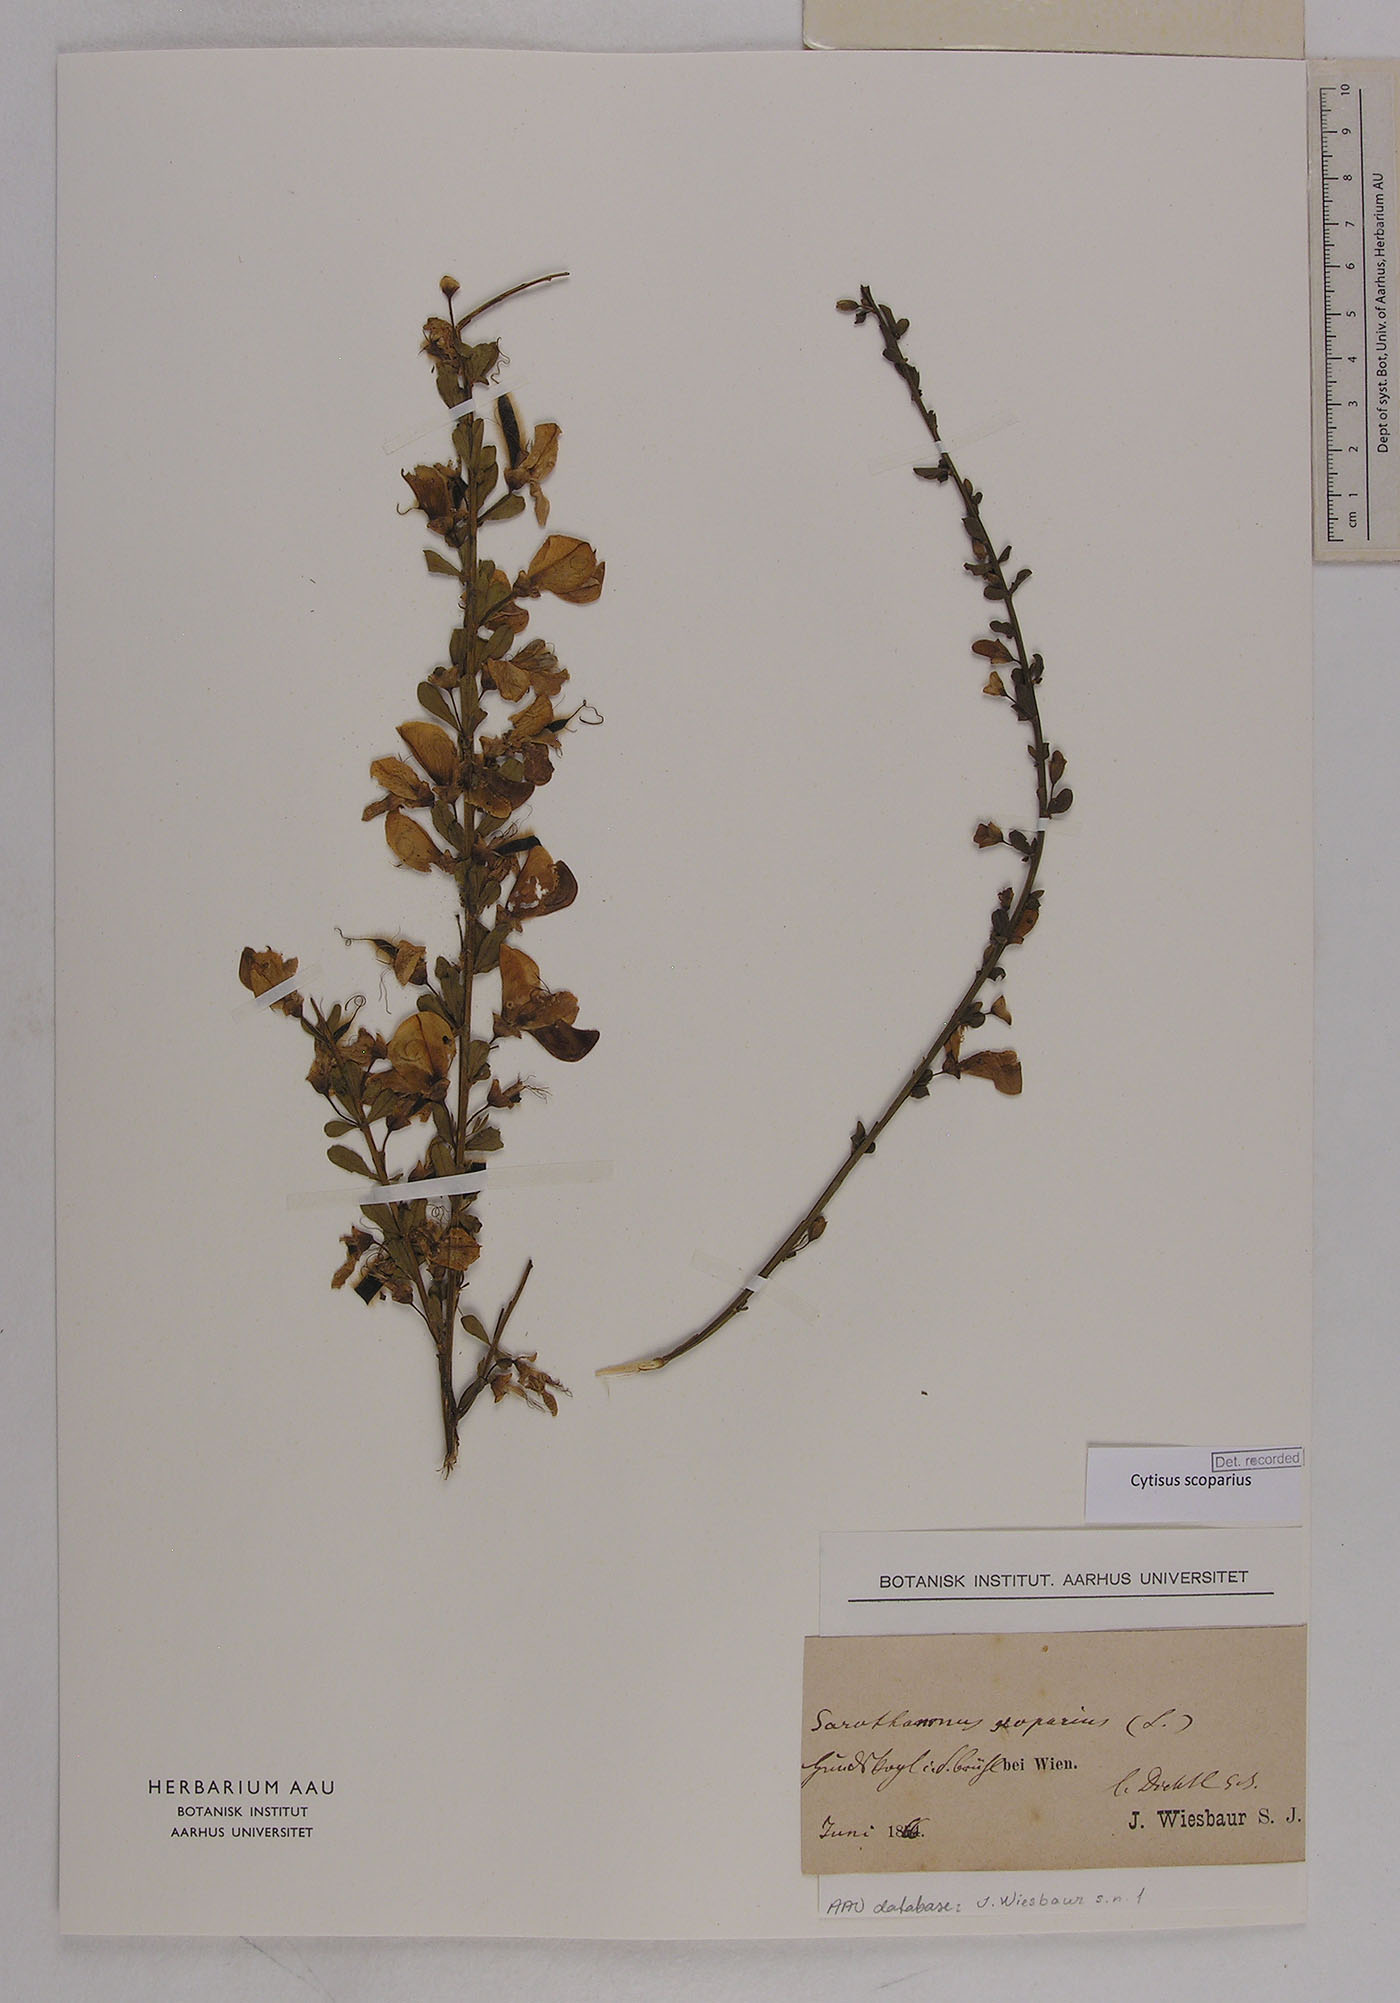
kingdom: Plantae
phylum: Tracheophyta
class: Magnoliopsida
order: Fabales
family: Fabaceae
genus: Cytisus
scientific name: Cytisus scoparius
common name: Scotch broom
